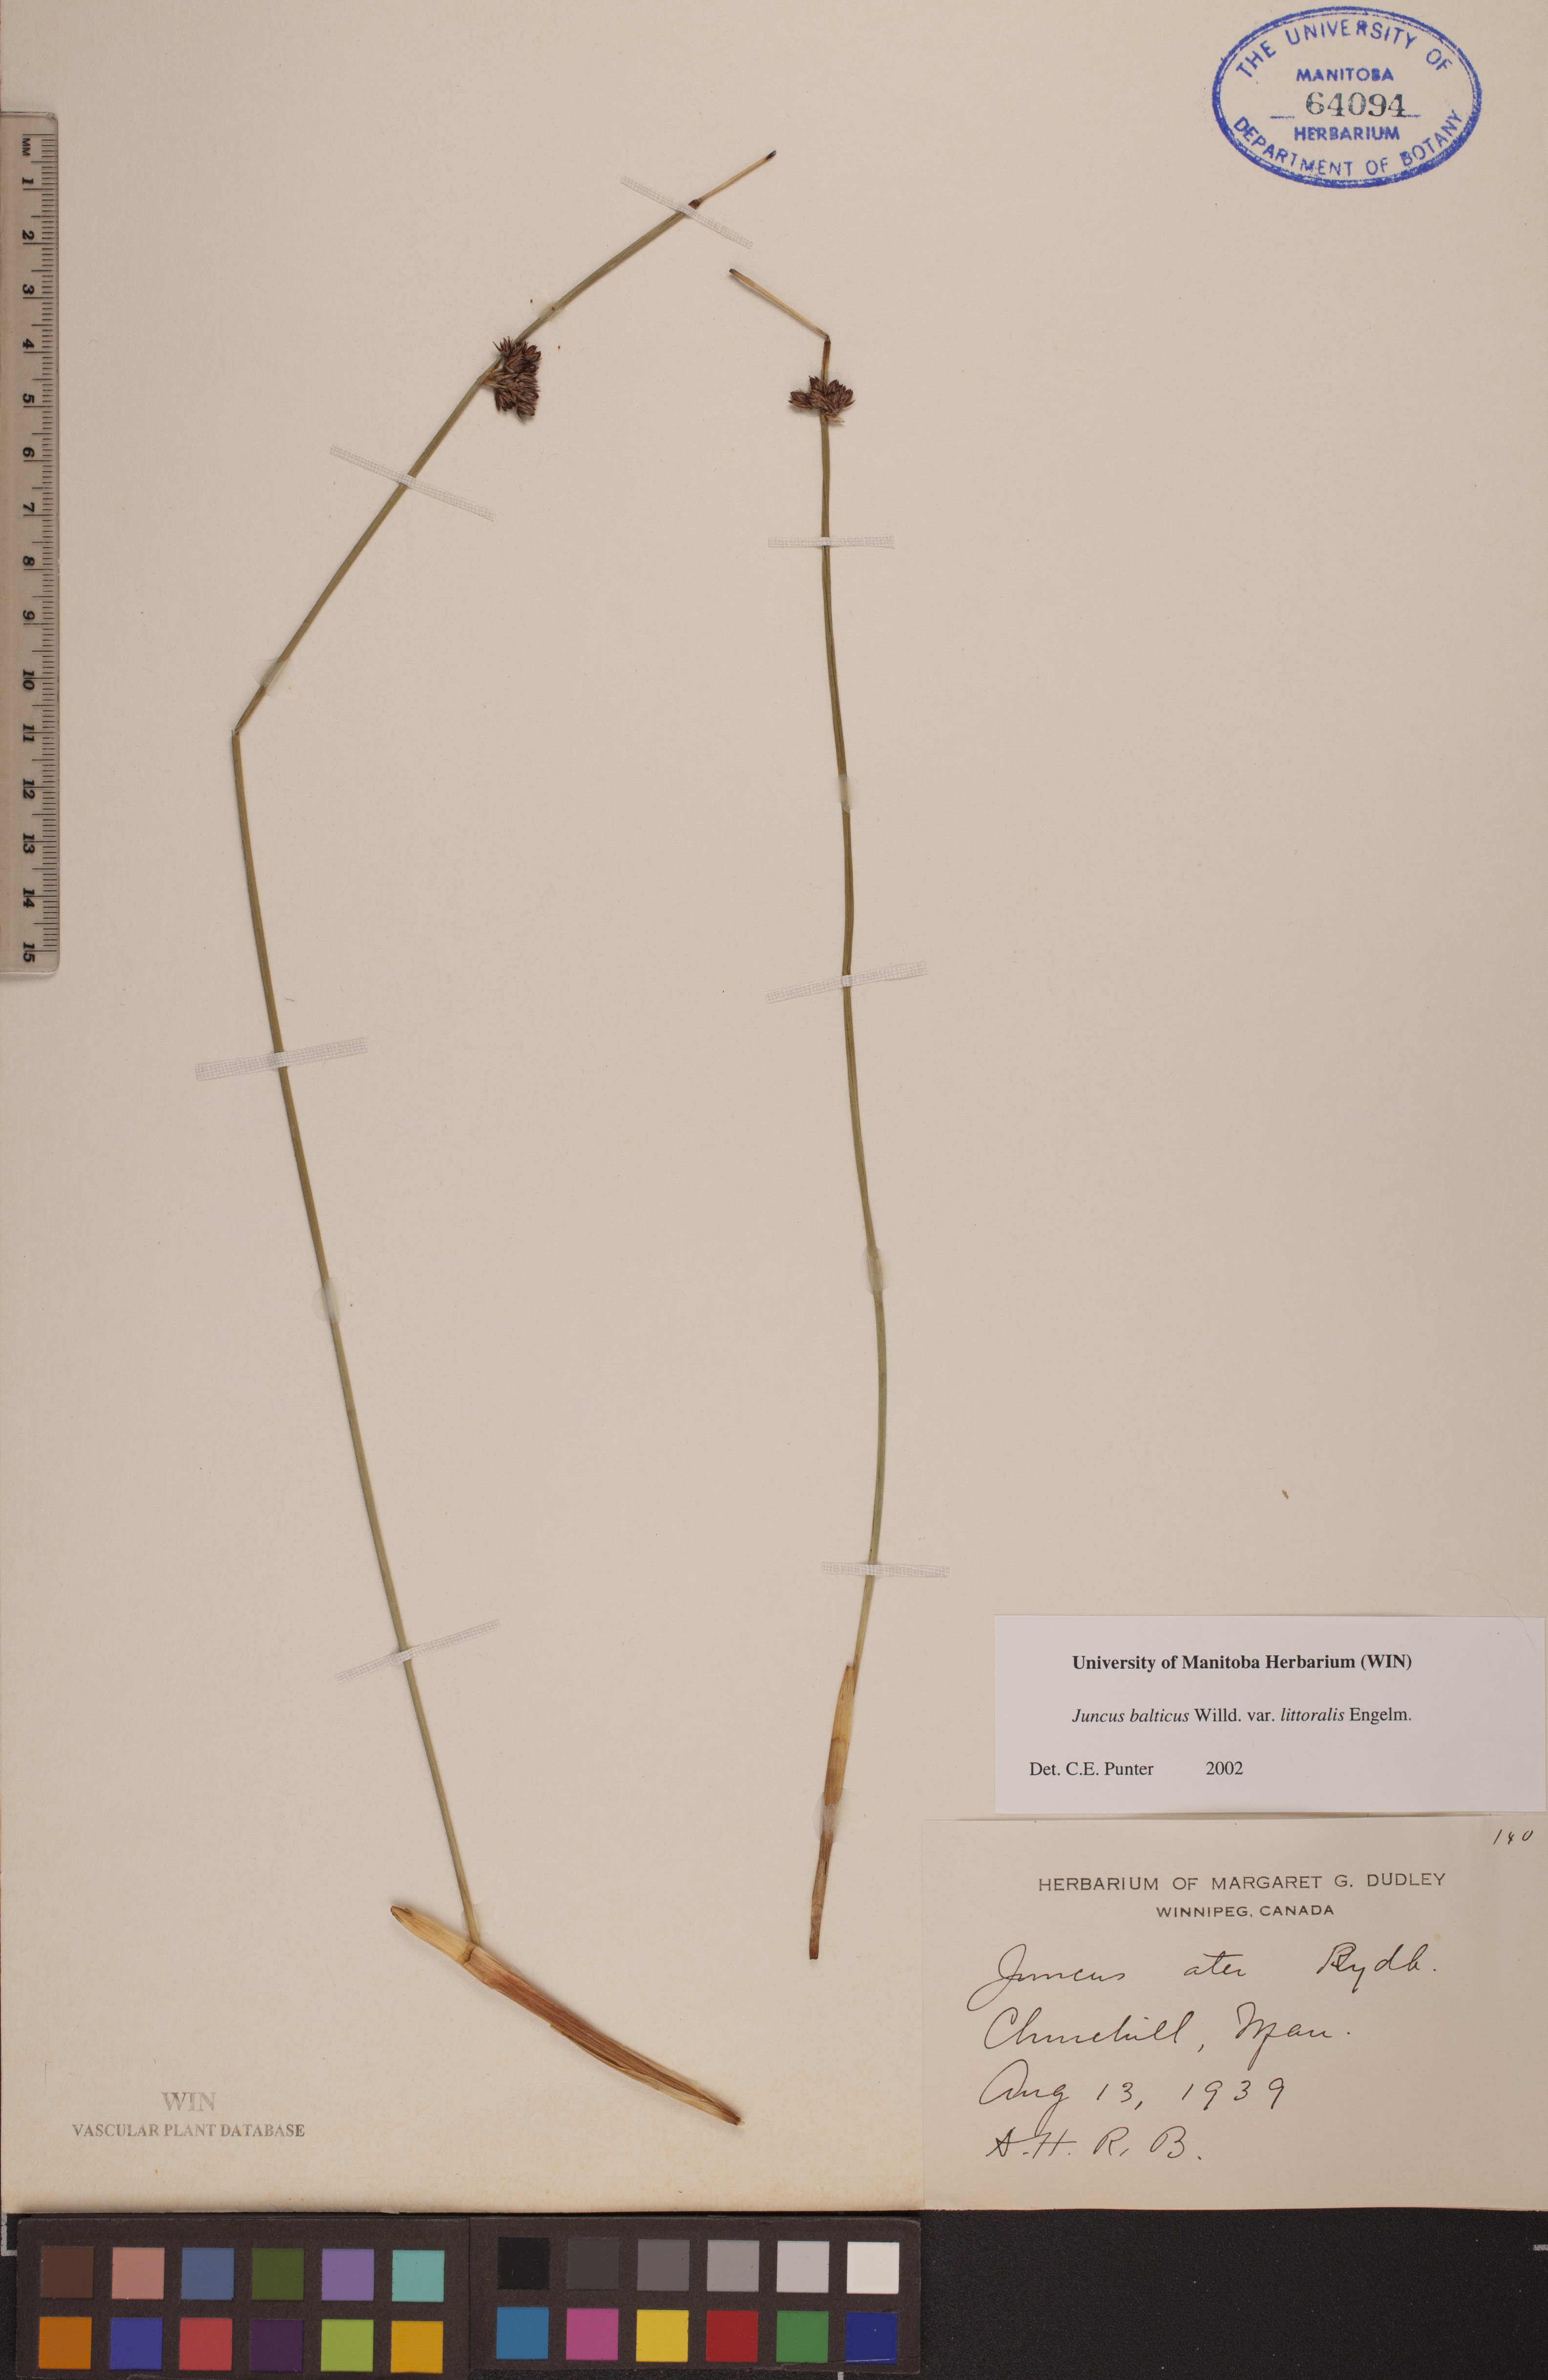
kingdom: Plantae
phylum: Tracheophyta
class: Liliopsida
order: Poales
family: Juncaceae
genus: Juncus
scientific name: Juncus balticus
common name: Baltic rush
